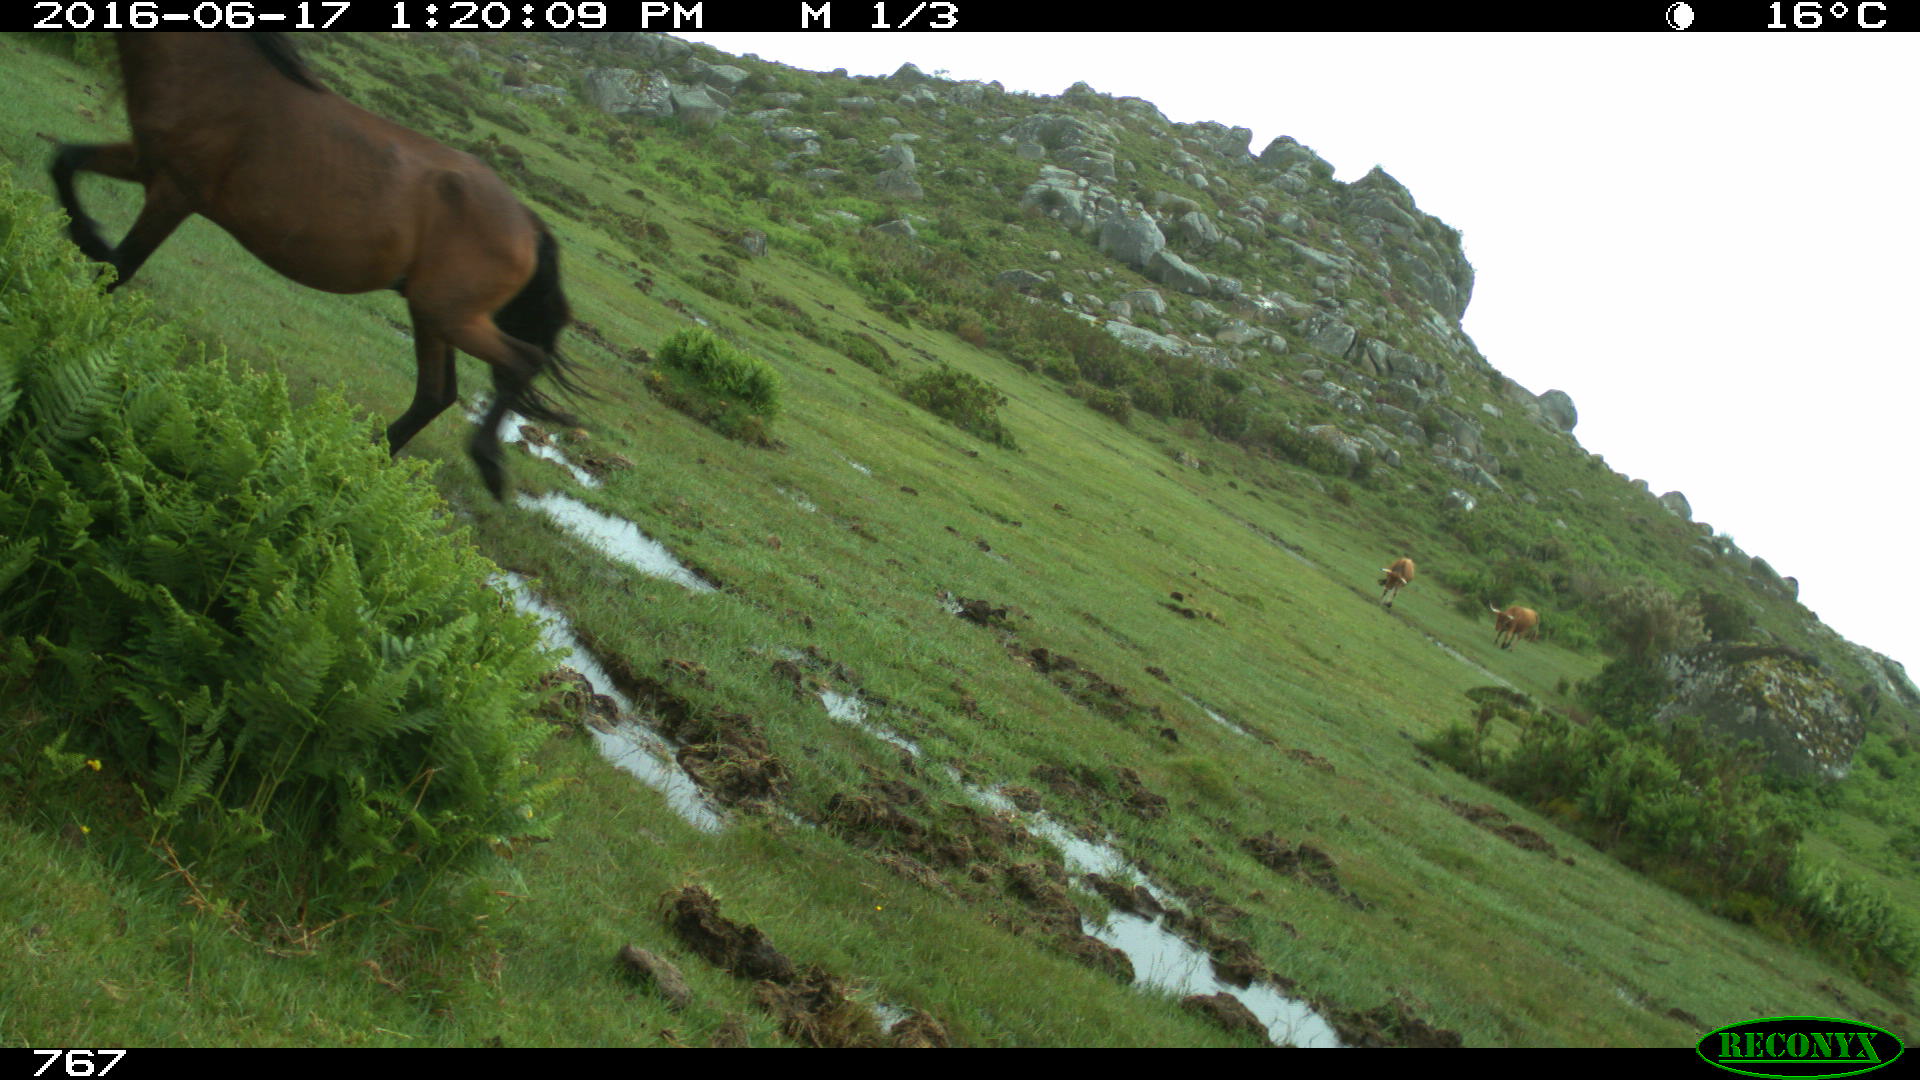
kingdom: Animalia
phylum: Chordata
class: Mammalia
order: Perissodactyla
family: Equidae
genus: Equus
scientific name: Equus caballus
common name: Horse
